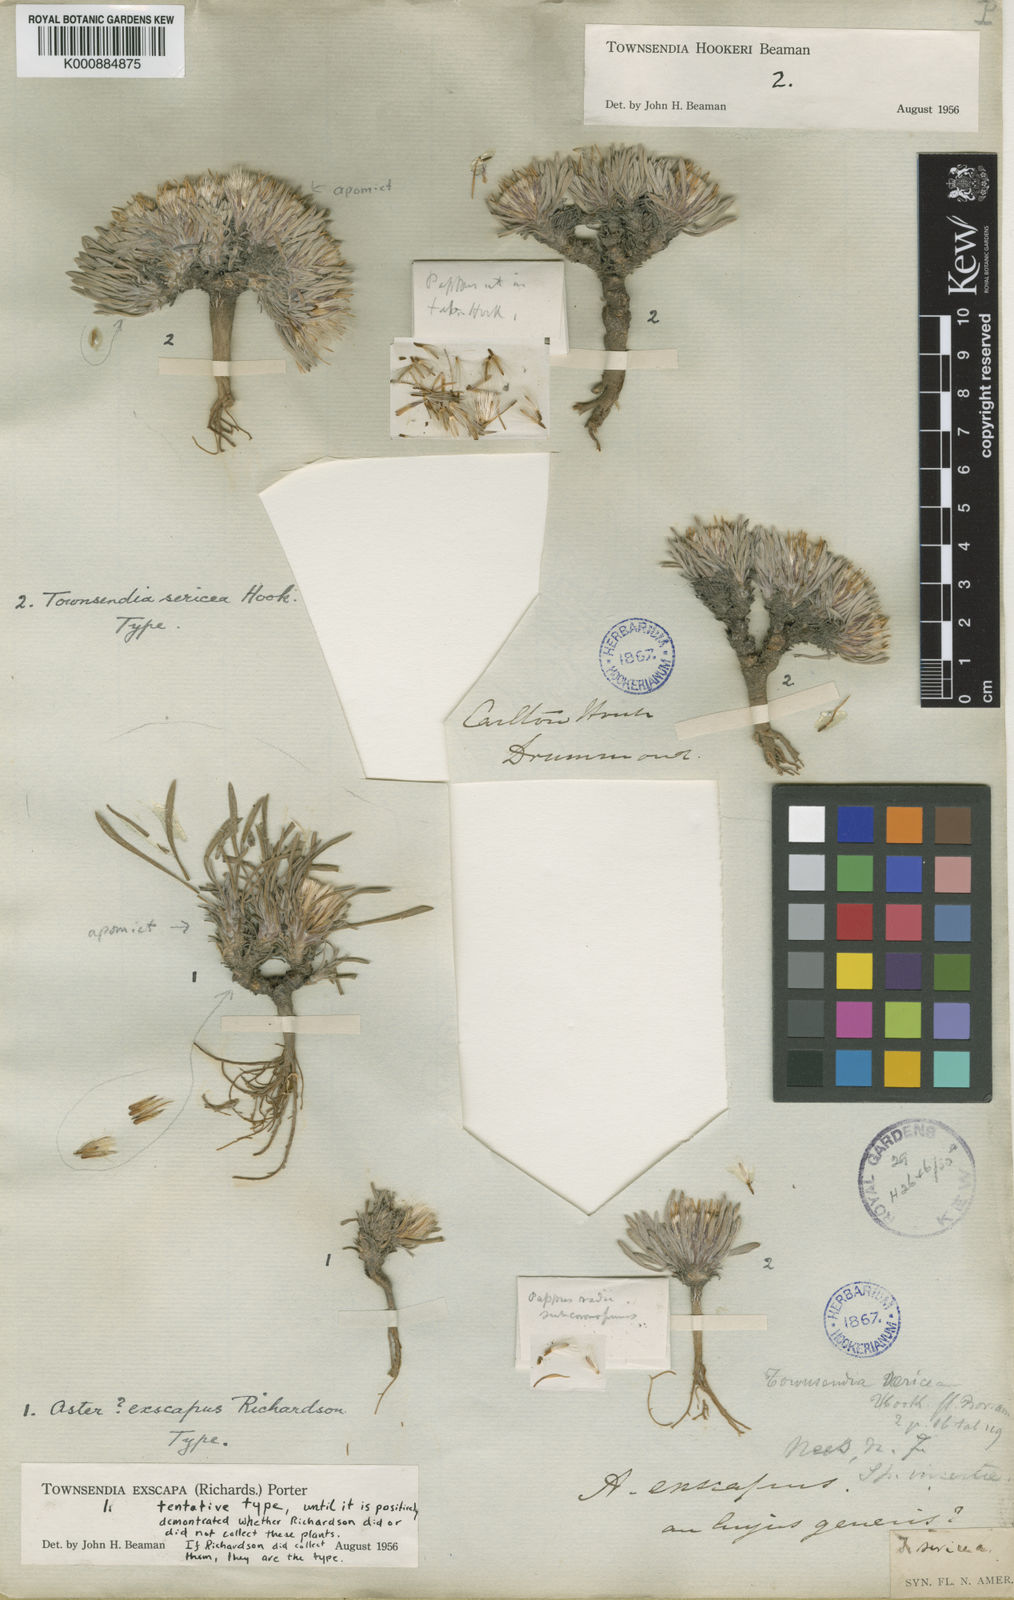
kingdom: Plantae
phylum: Tracheophyta
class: Magnoliopsida
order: Asterales
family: Asteraceae
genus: Townsendia
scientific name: Townsendia exscapa
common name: Dwarf townsendia
